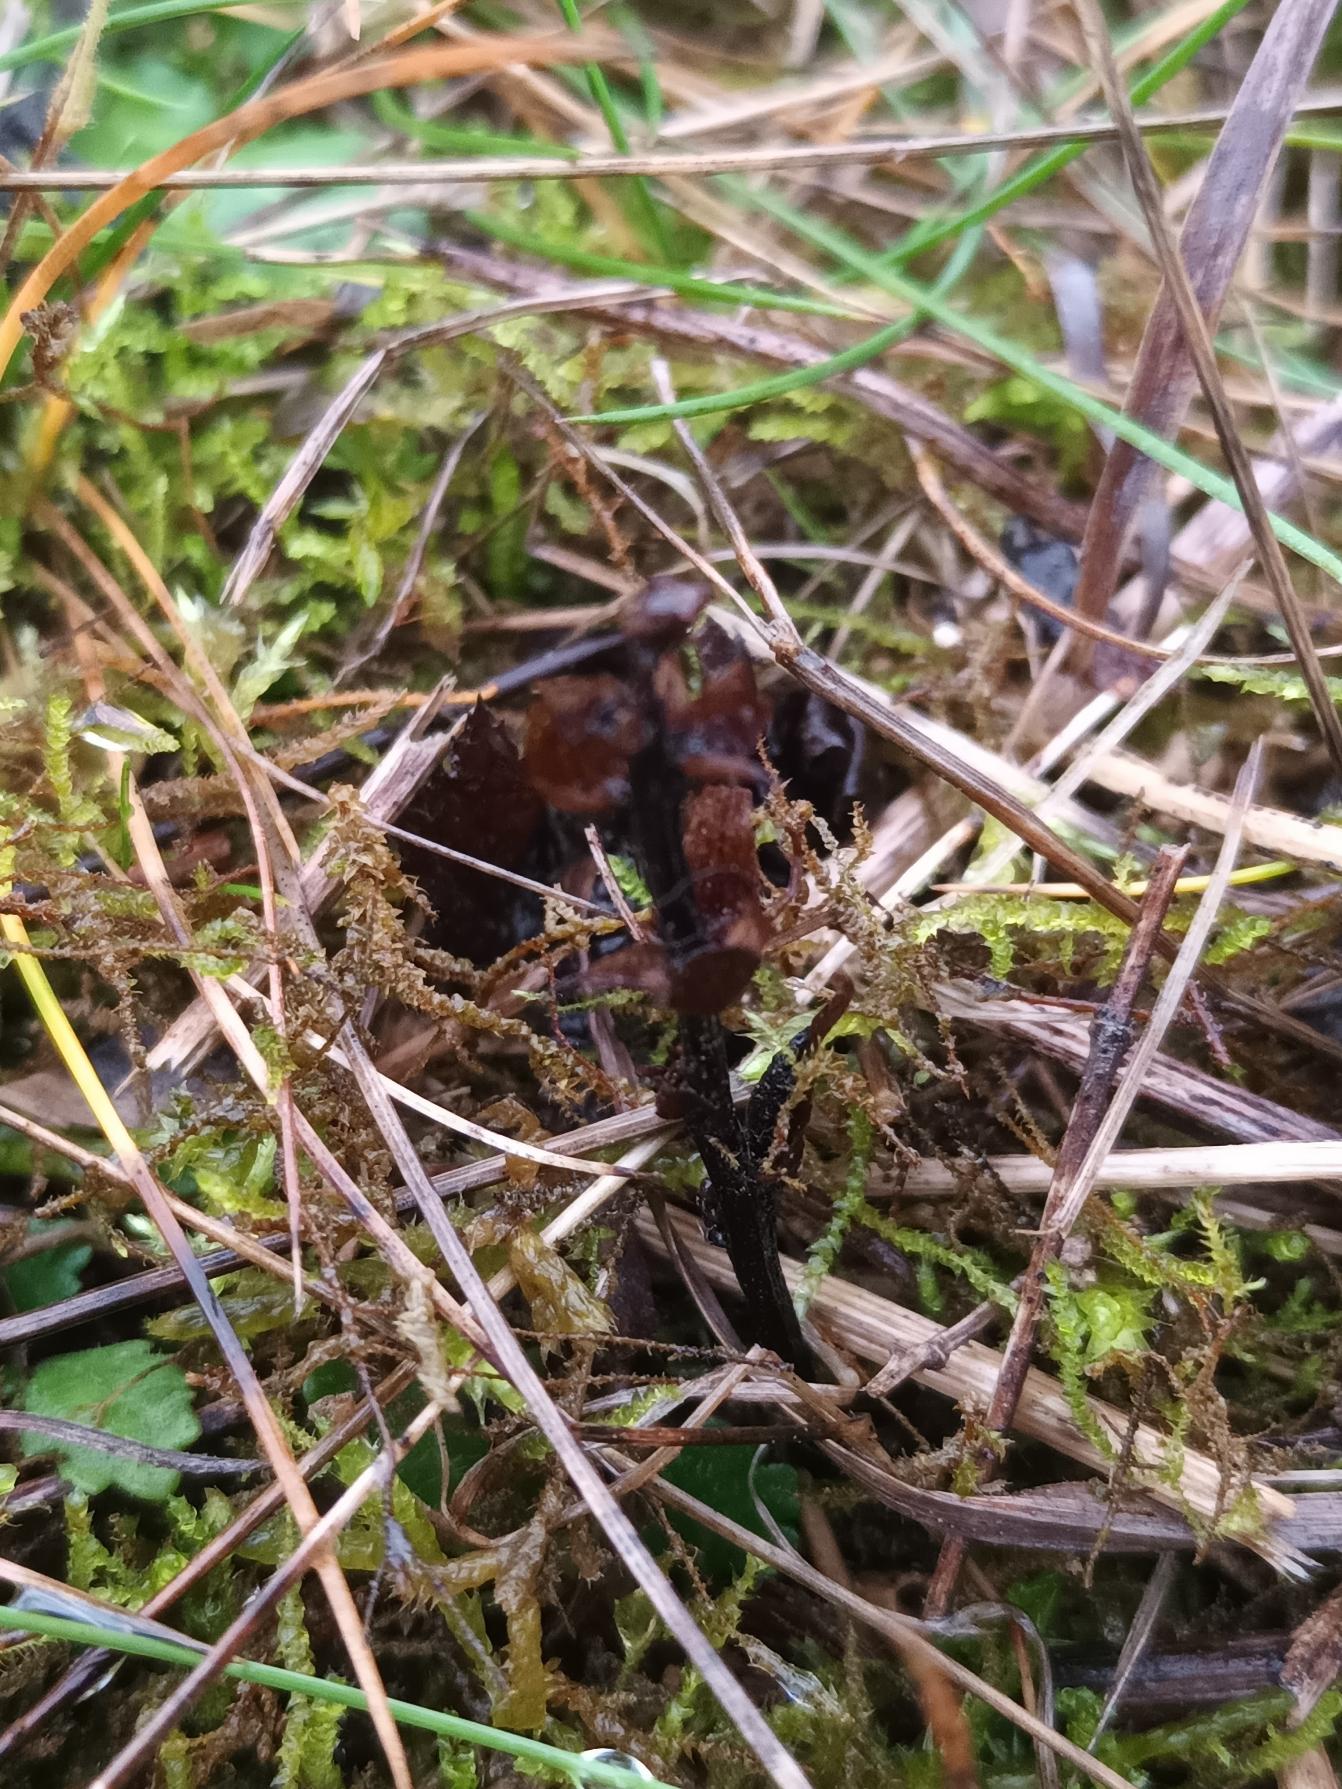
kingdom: Plantae
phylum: Tracheophyta
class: Magnoliopsida
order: Lamiales
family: Orobanchaceae
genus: Orobanche
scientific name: Orobanche picridis
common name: Bittermælk-gyvelkvæler
